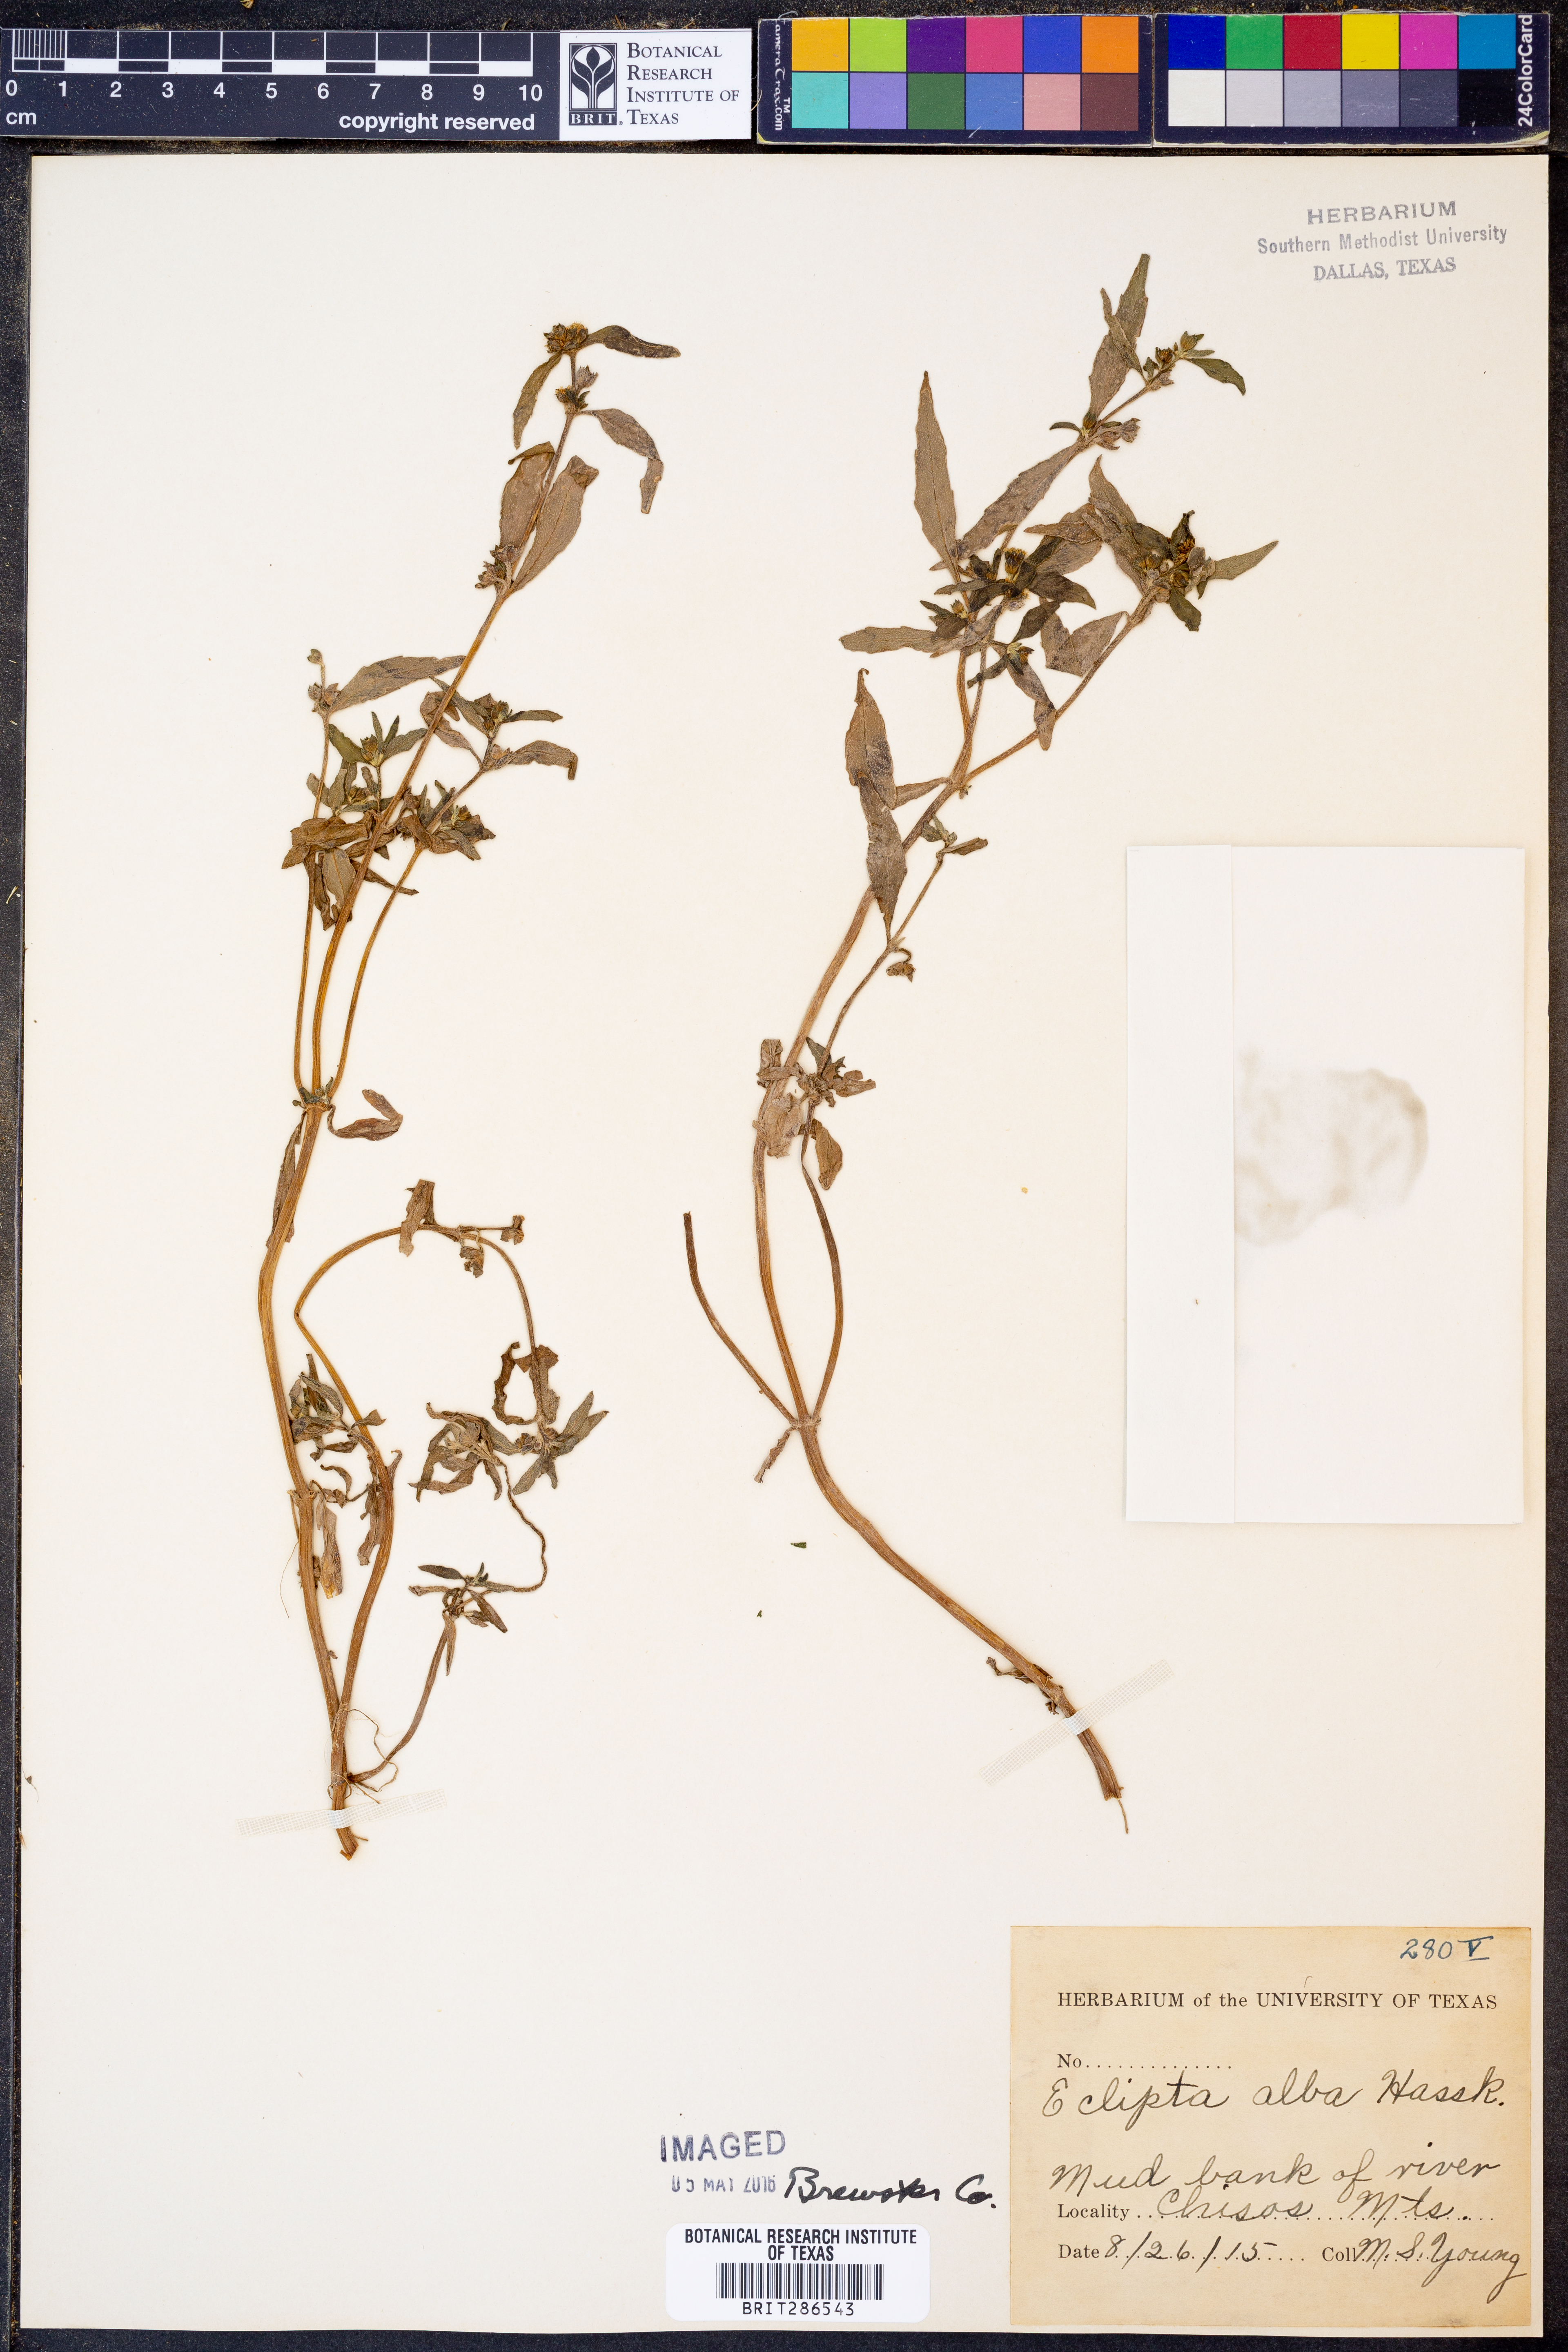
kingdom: Plantae
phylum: Tracheophyta
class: Magnoliopsida
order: Asterales
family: Asteraceae
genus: Eclipta
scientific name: Eclipta alba
